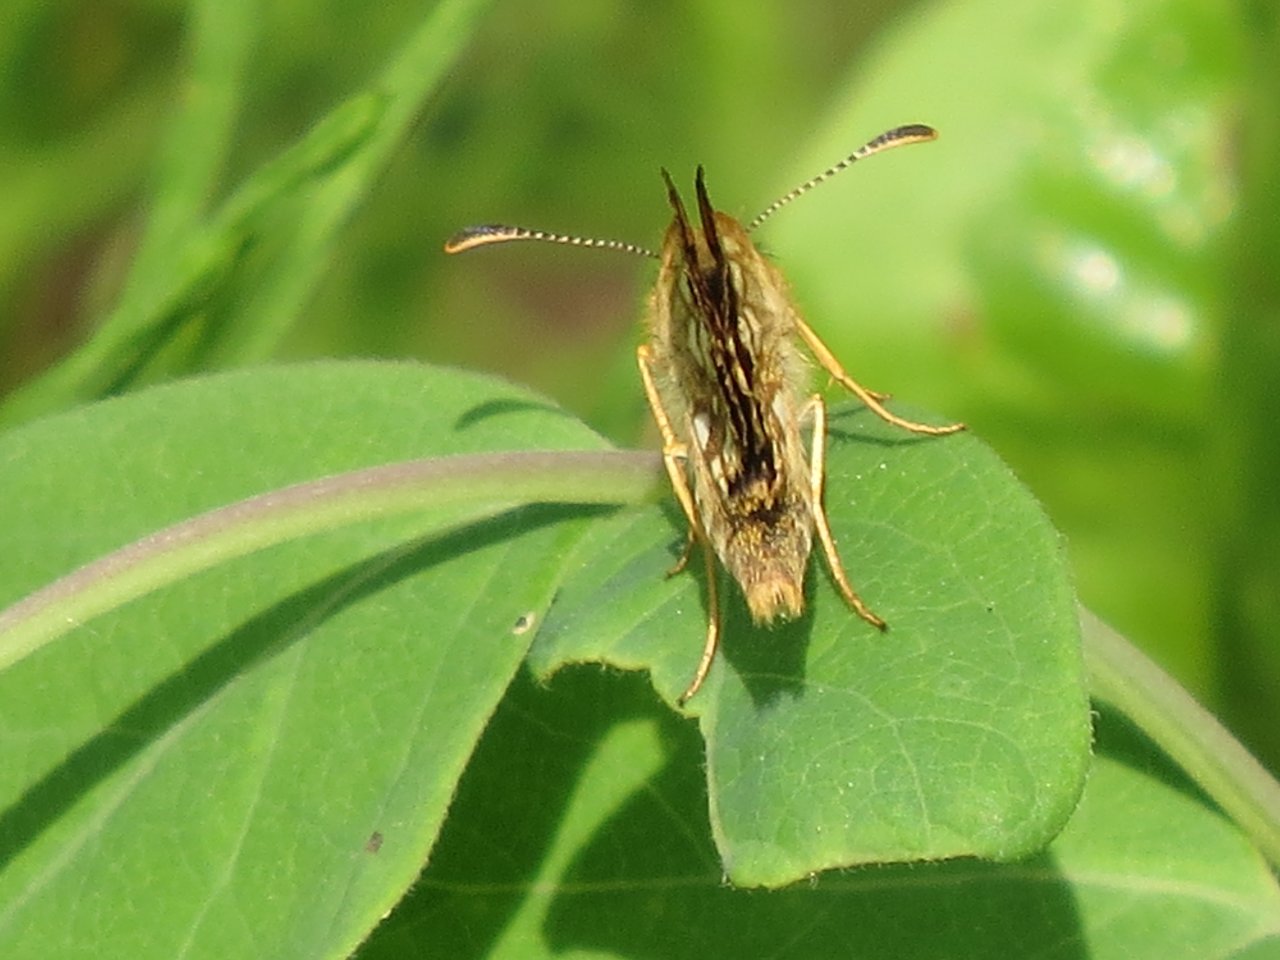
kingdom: Animalia
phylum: Arthropoda
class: Insecta
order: Lepidoptera
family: Hesperiidae
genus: Carterocephalus
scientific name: Carterocephalus palaemon
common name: Chequered Skipper
